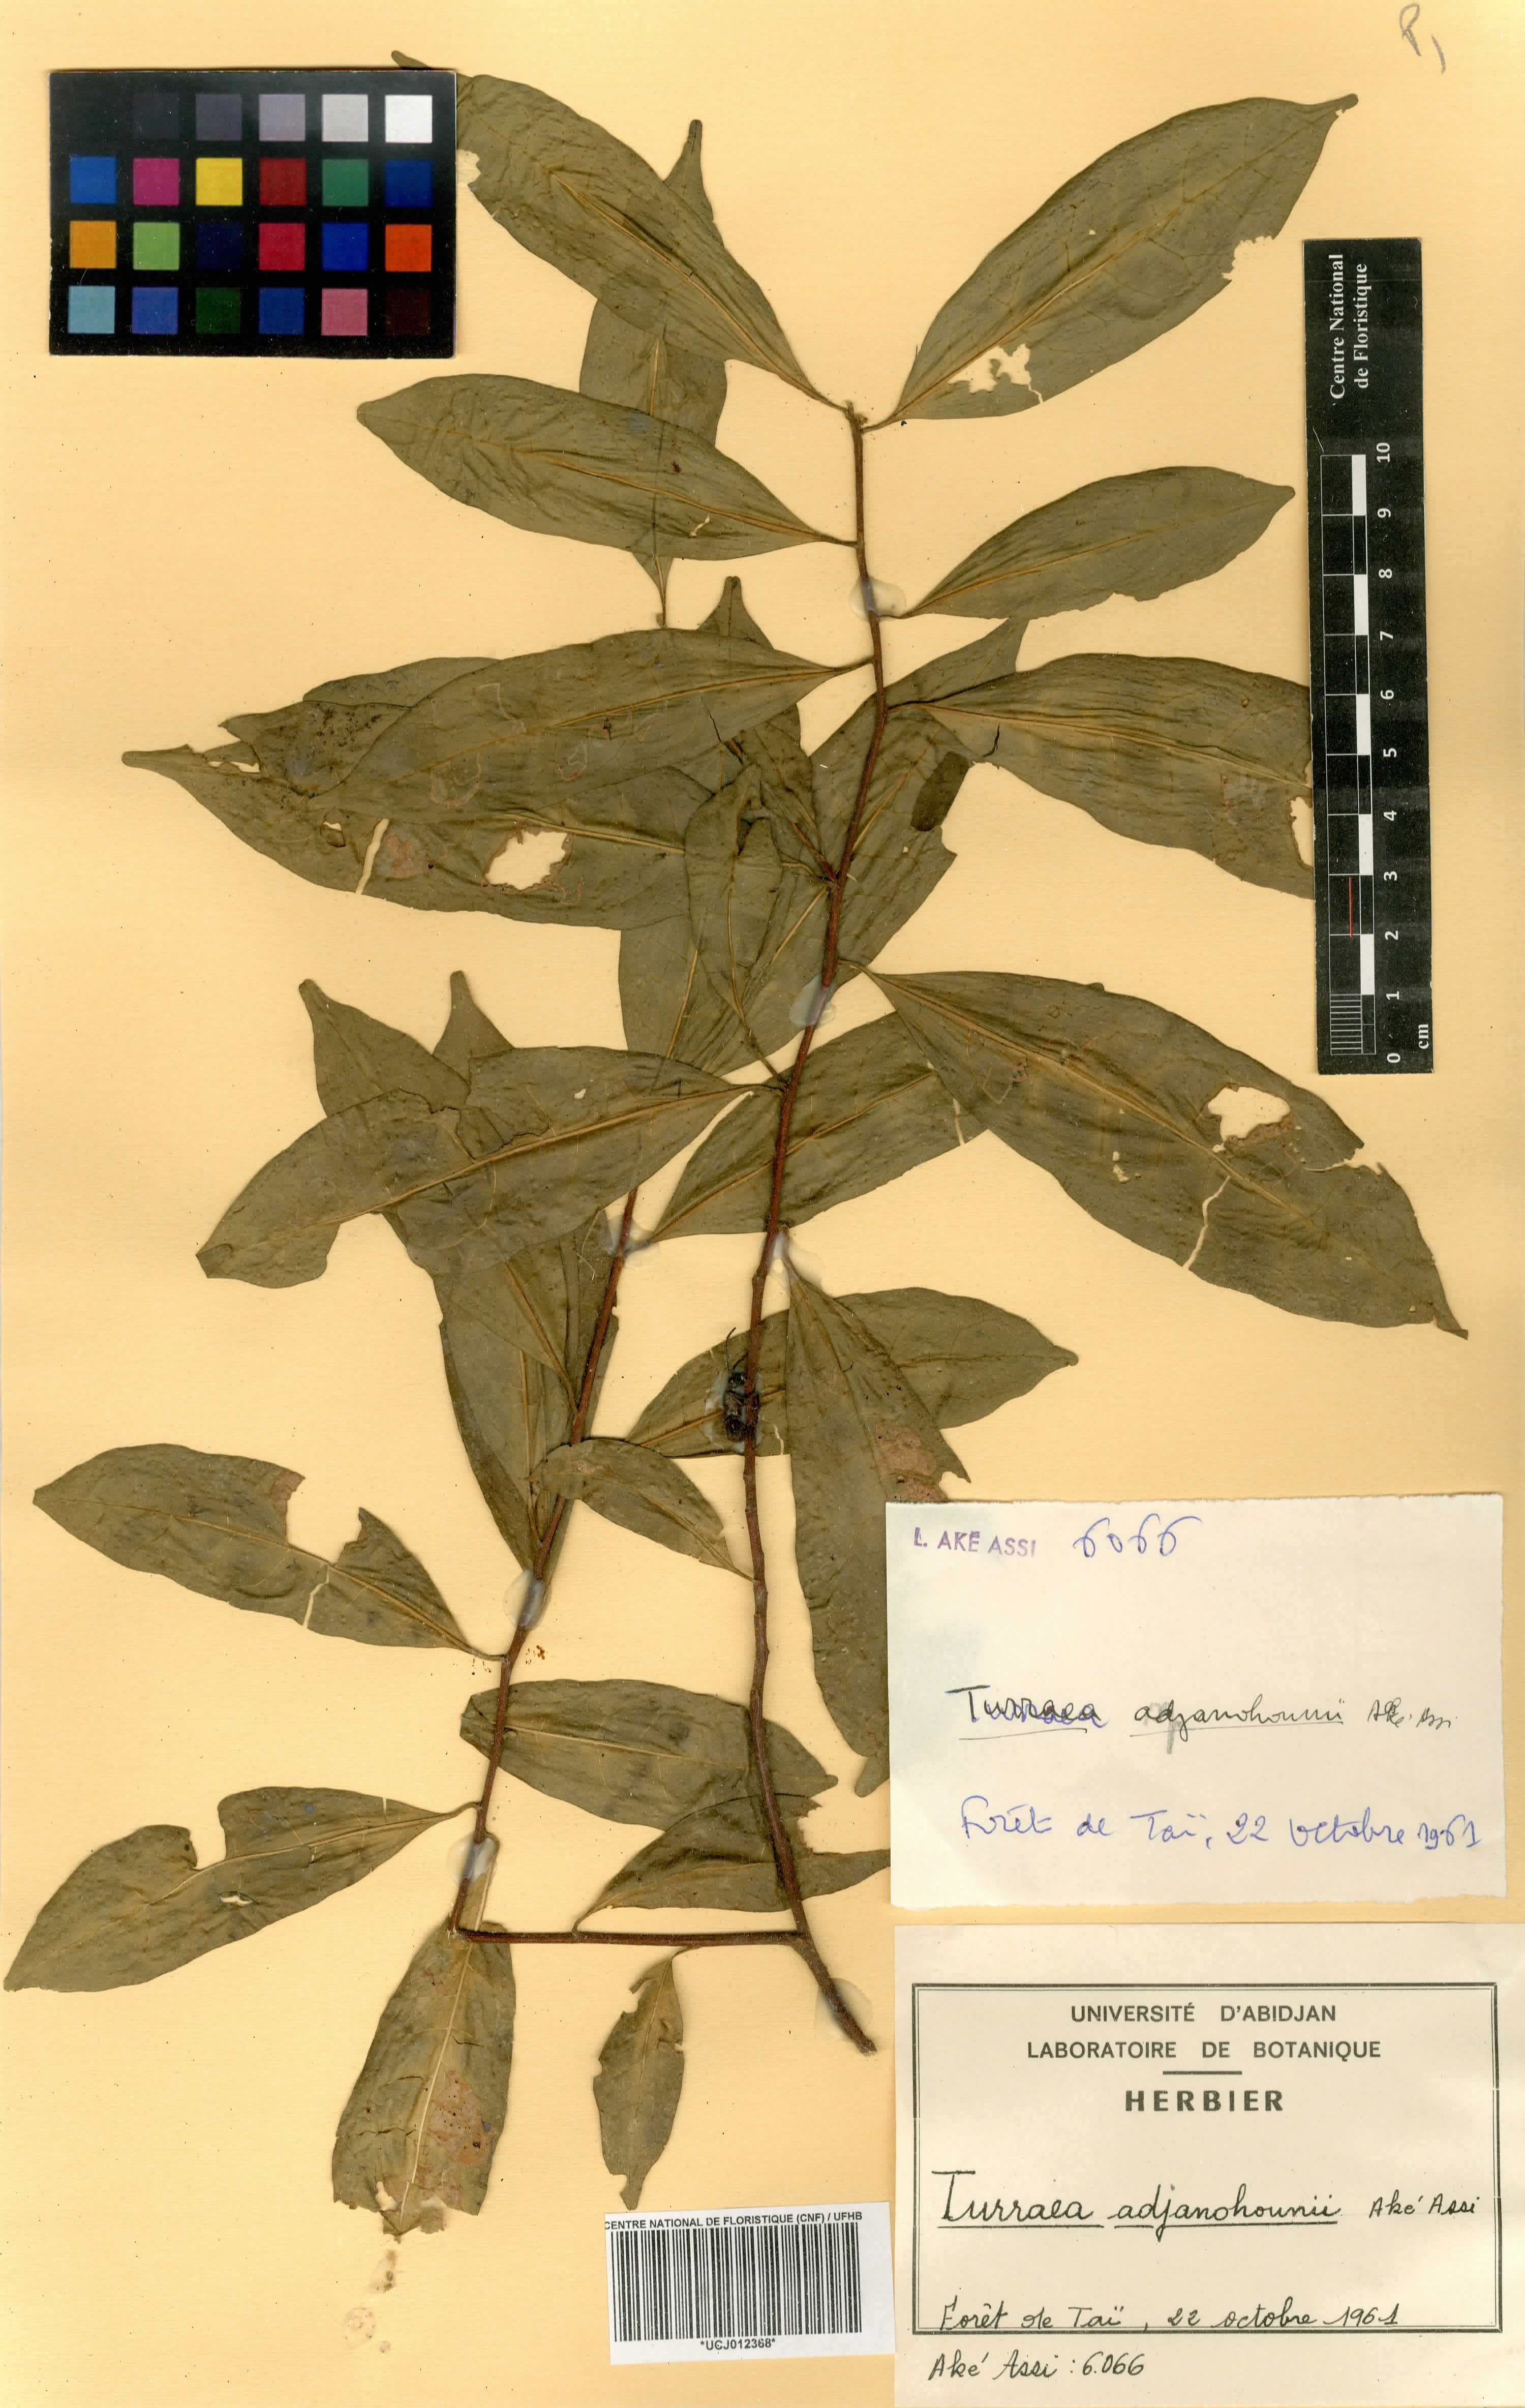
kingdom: Plantae
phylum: Tracheophyta
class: Magnoliopsida
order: Sapindales
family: Meliaceae
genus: Turraea
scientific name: Turraea adjanohounii
